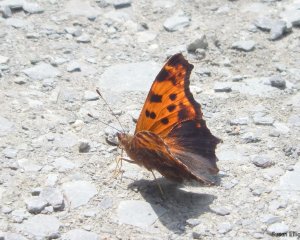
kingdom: Animalia
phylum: Arthropoda
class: Insecta
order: Lepidoptera
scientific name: Lepidoptera
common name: Butterflies
